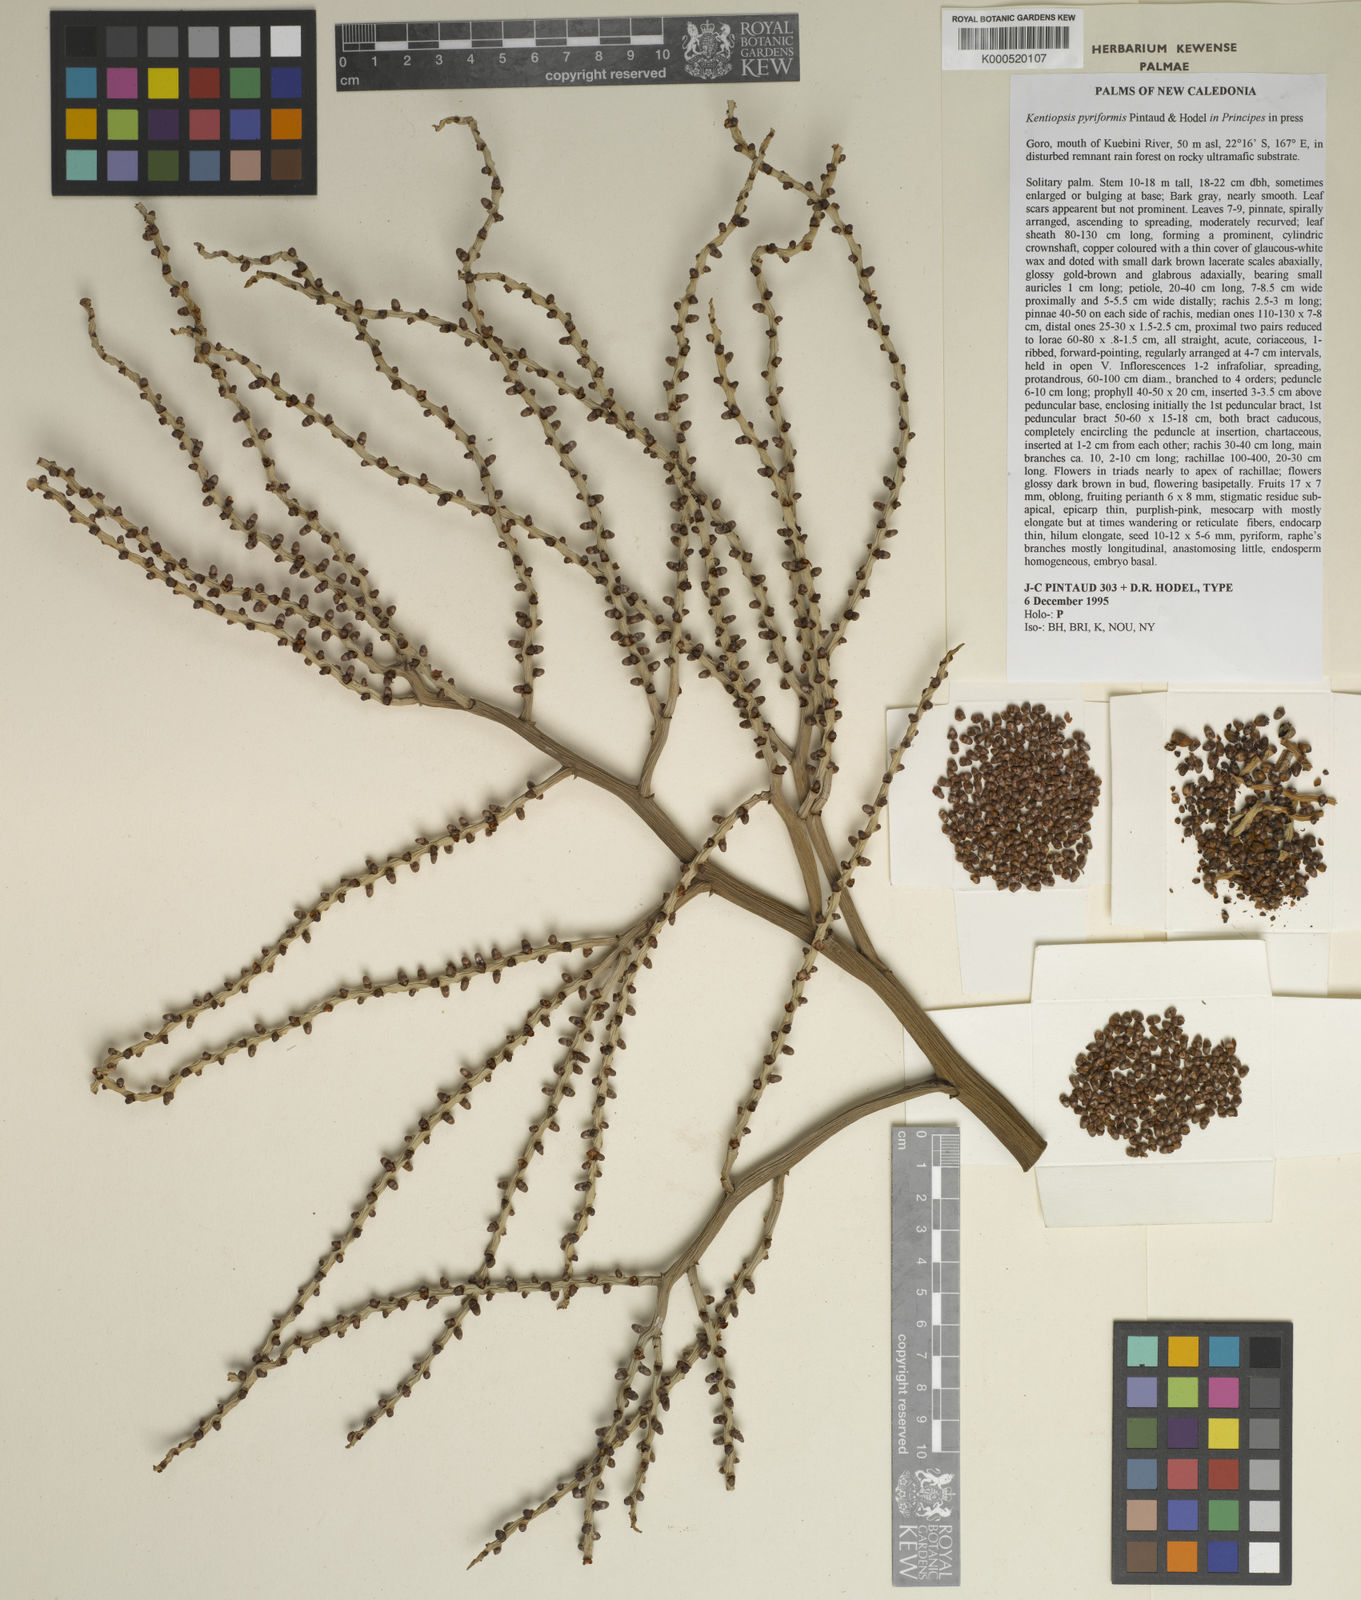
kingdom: Plantae
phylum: Tracheophyta
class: Liliopsida
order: Arecales
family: Arecaceae
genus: Chambeyronia
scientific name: Chambeyronia pyriformis
